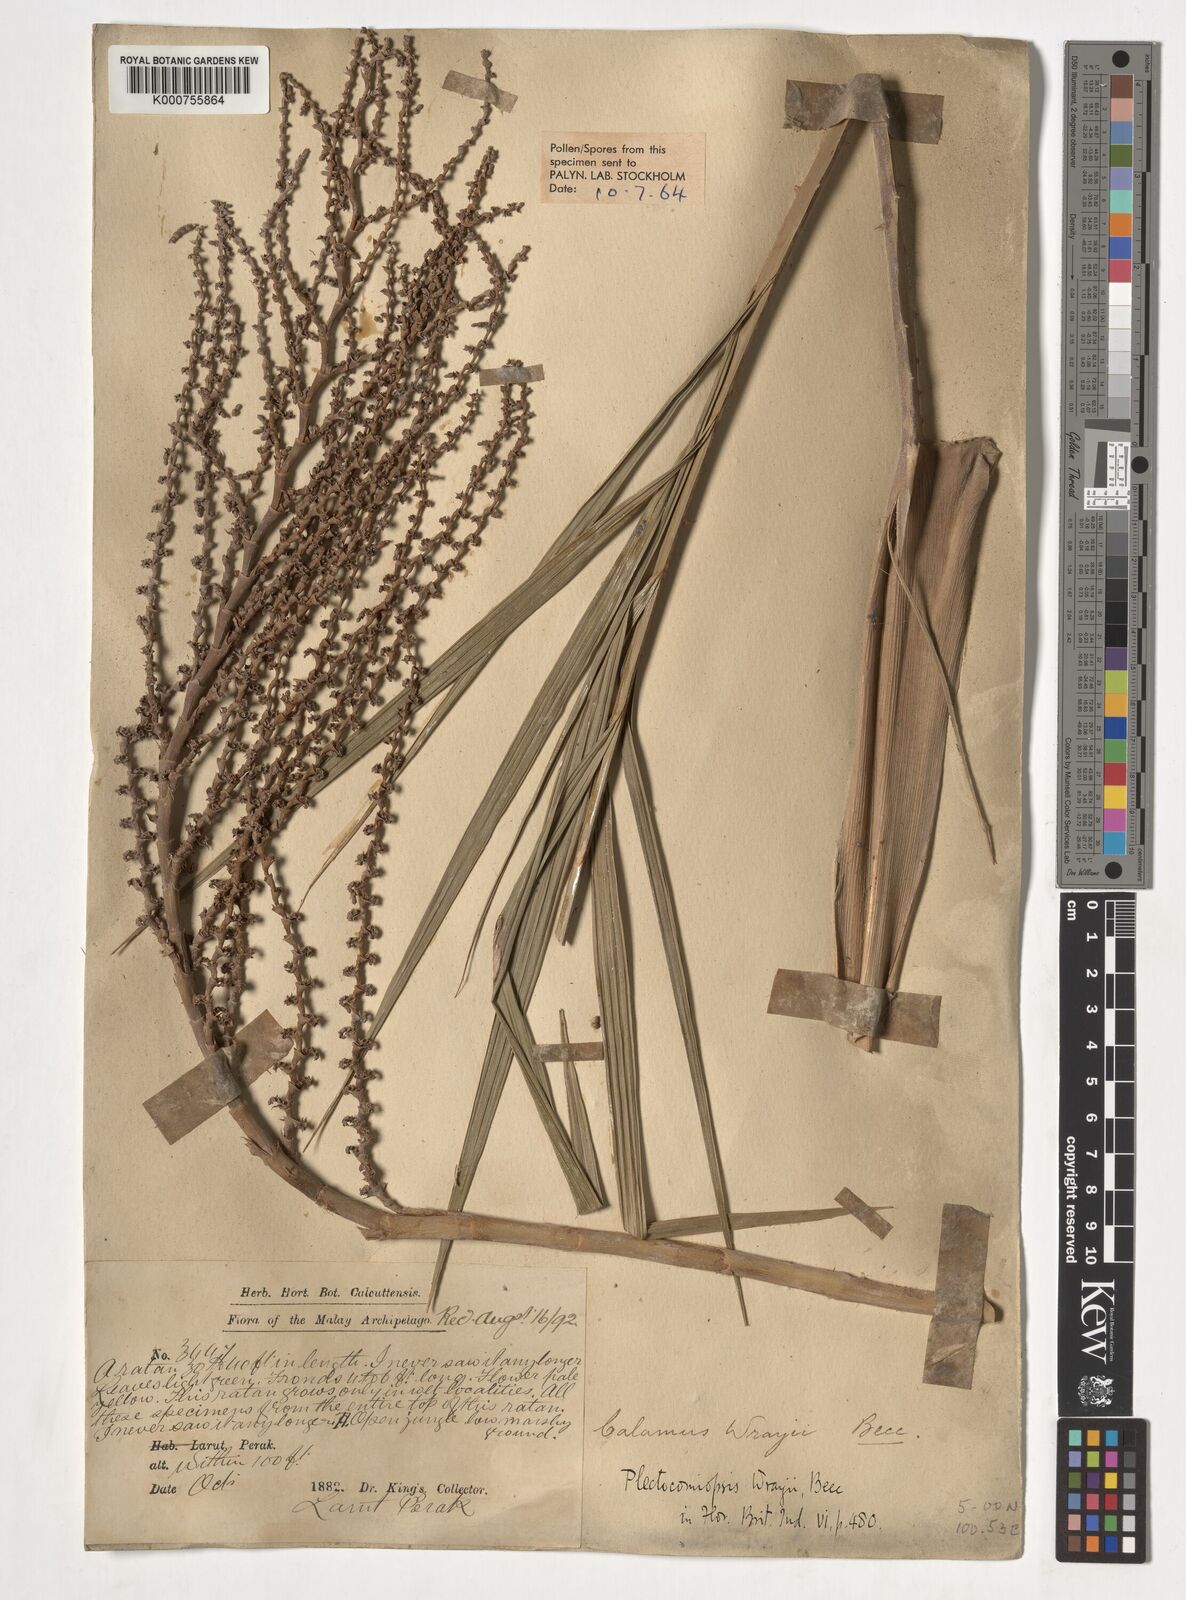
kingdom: Plantae
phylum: Tracheophyta
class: Liliopsida
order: Arecales
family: Arecaceae
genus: Plectocomiopsis
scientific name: Plectocomiopsis wrayi
